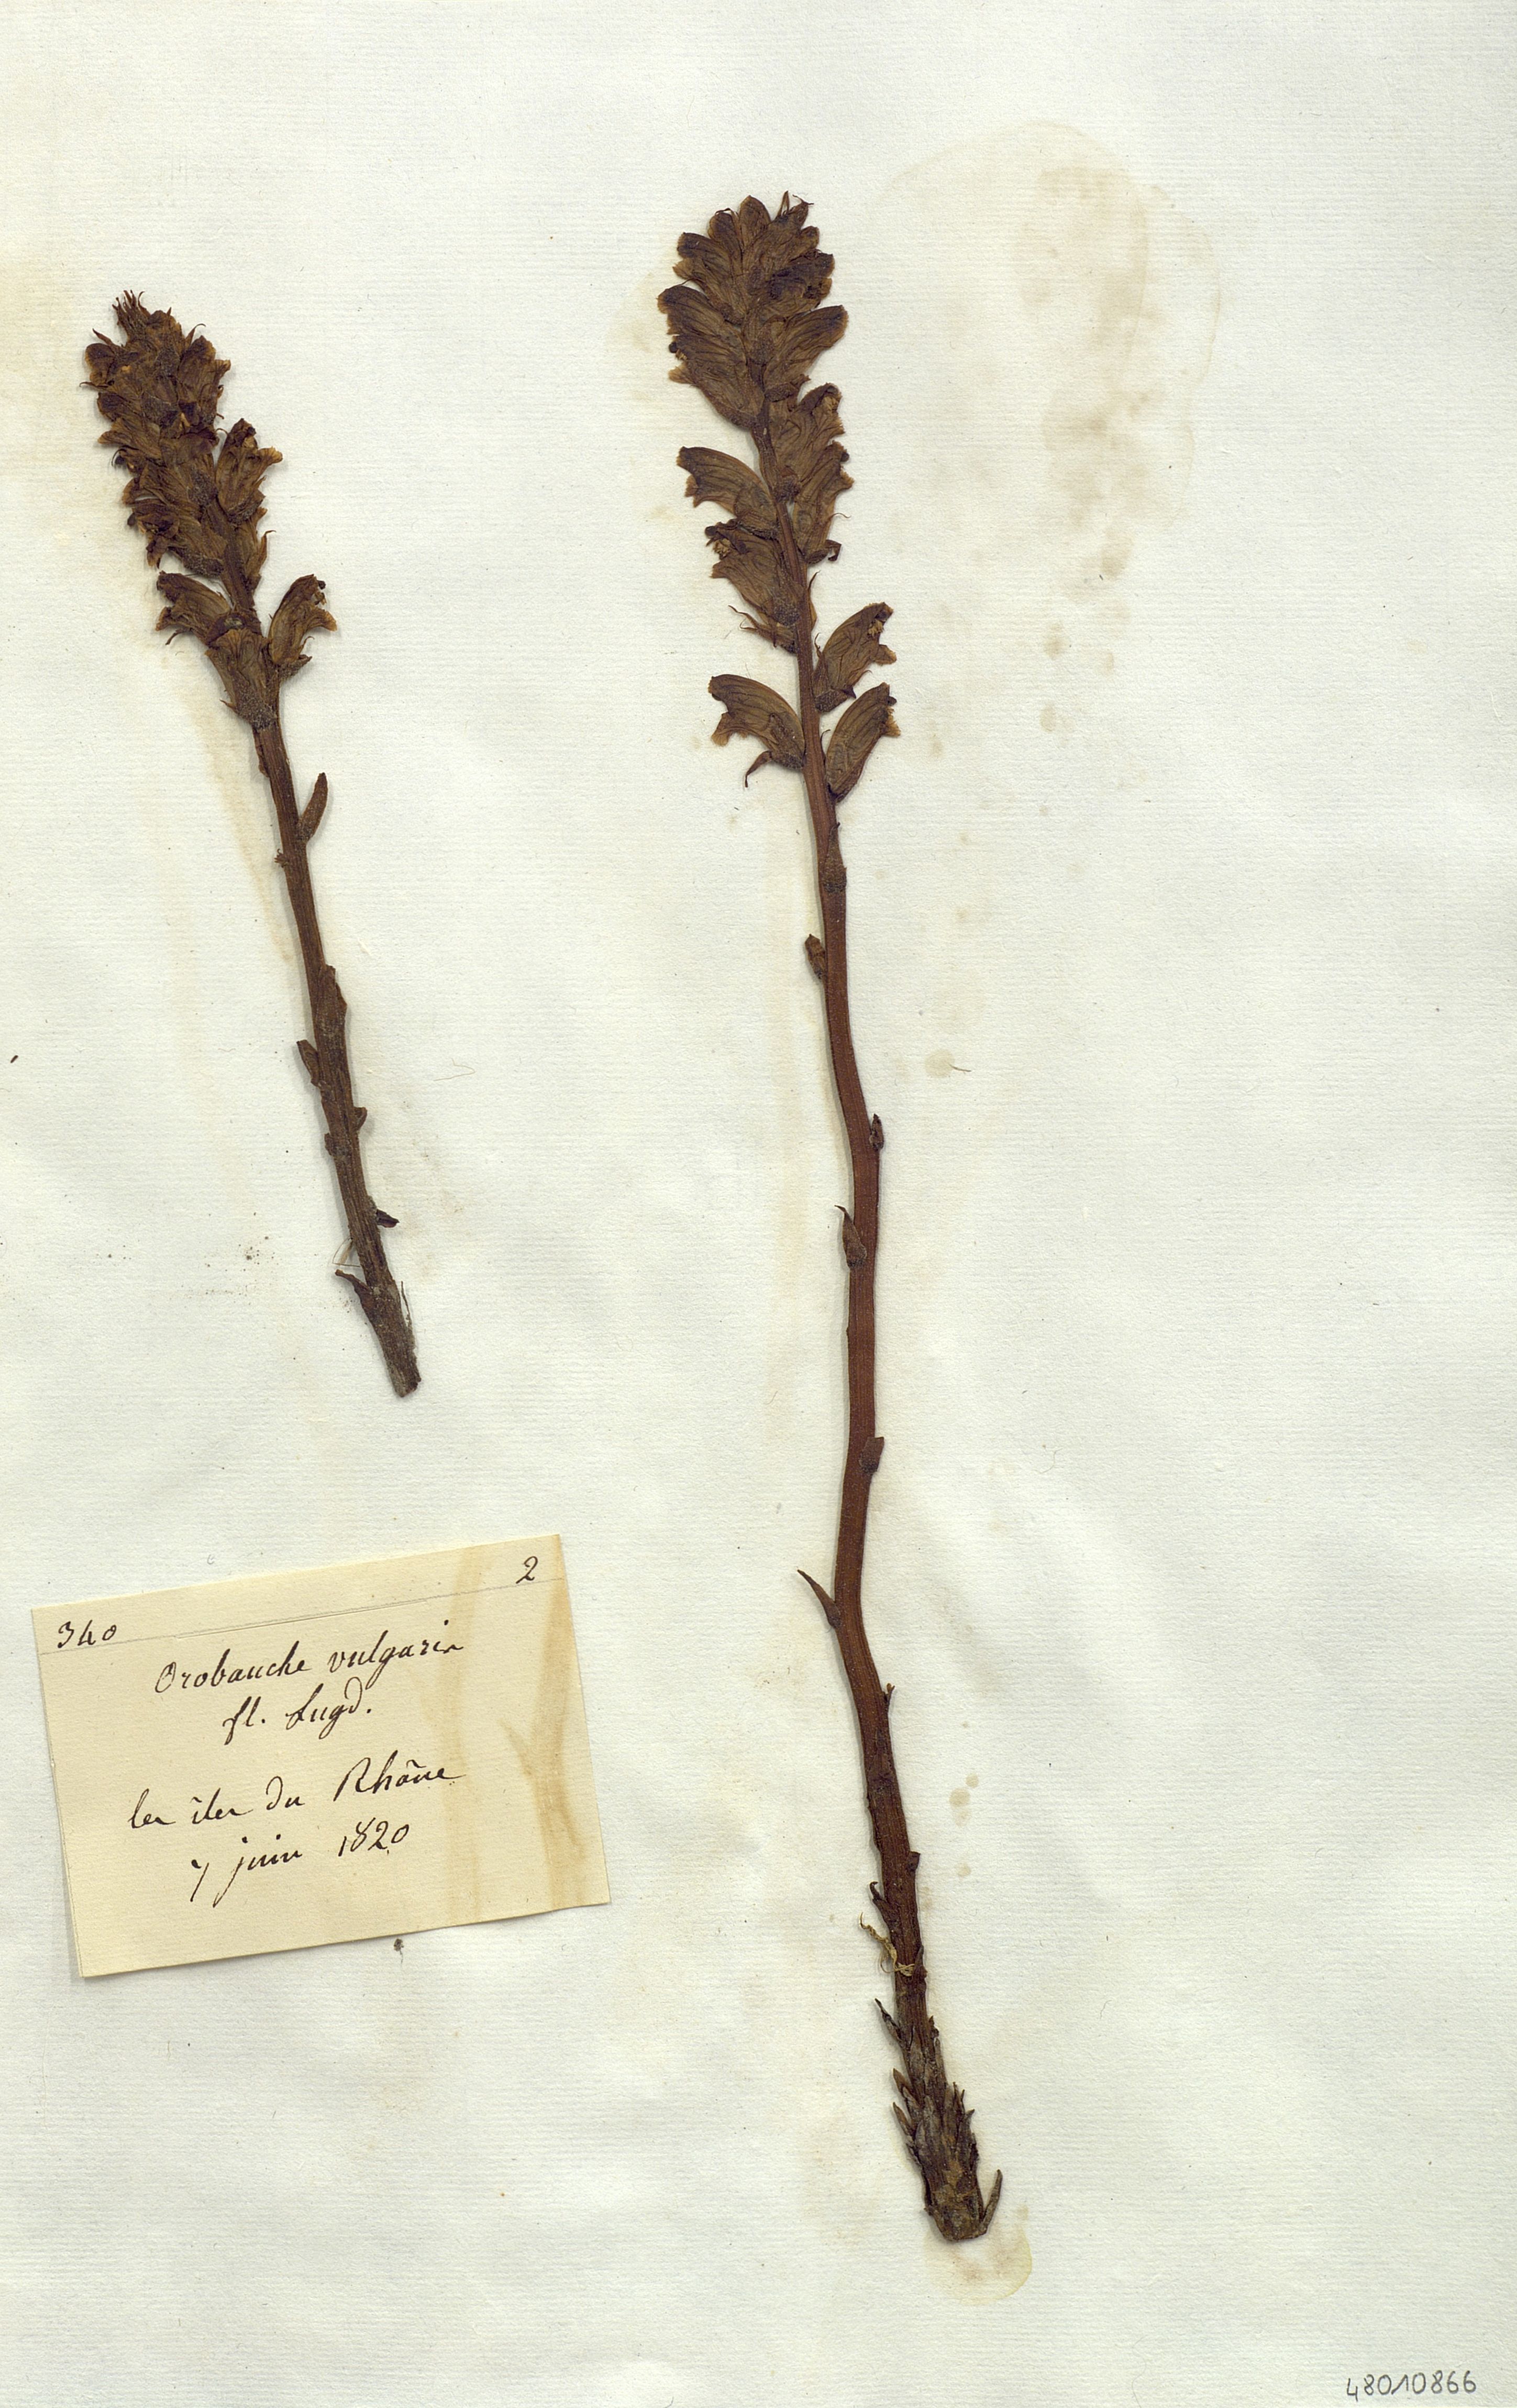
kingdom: Plantae
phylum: Tracheophyta
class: Magnoliopsida
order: Lamiales
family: Orobanchaceae
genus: Orobanche
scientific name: Orobanche
